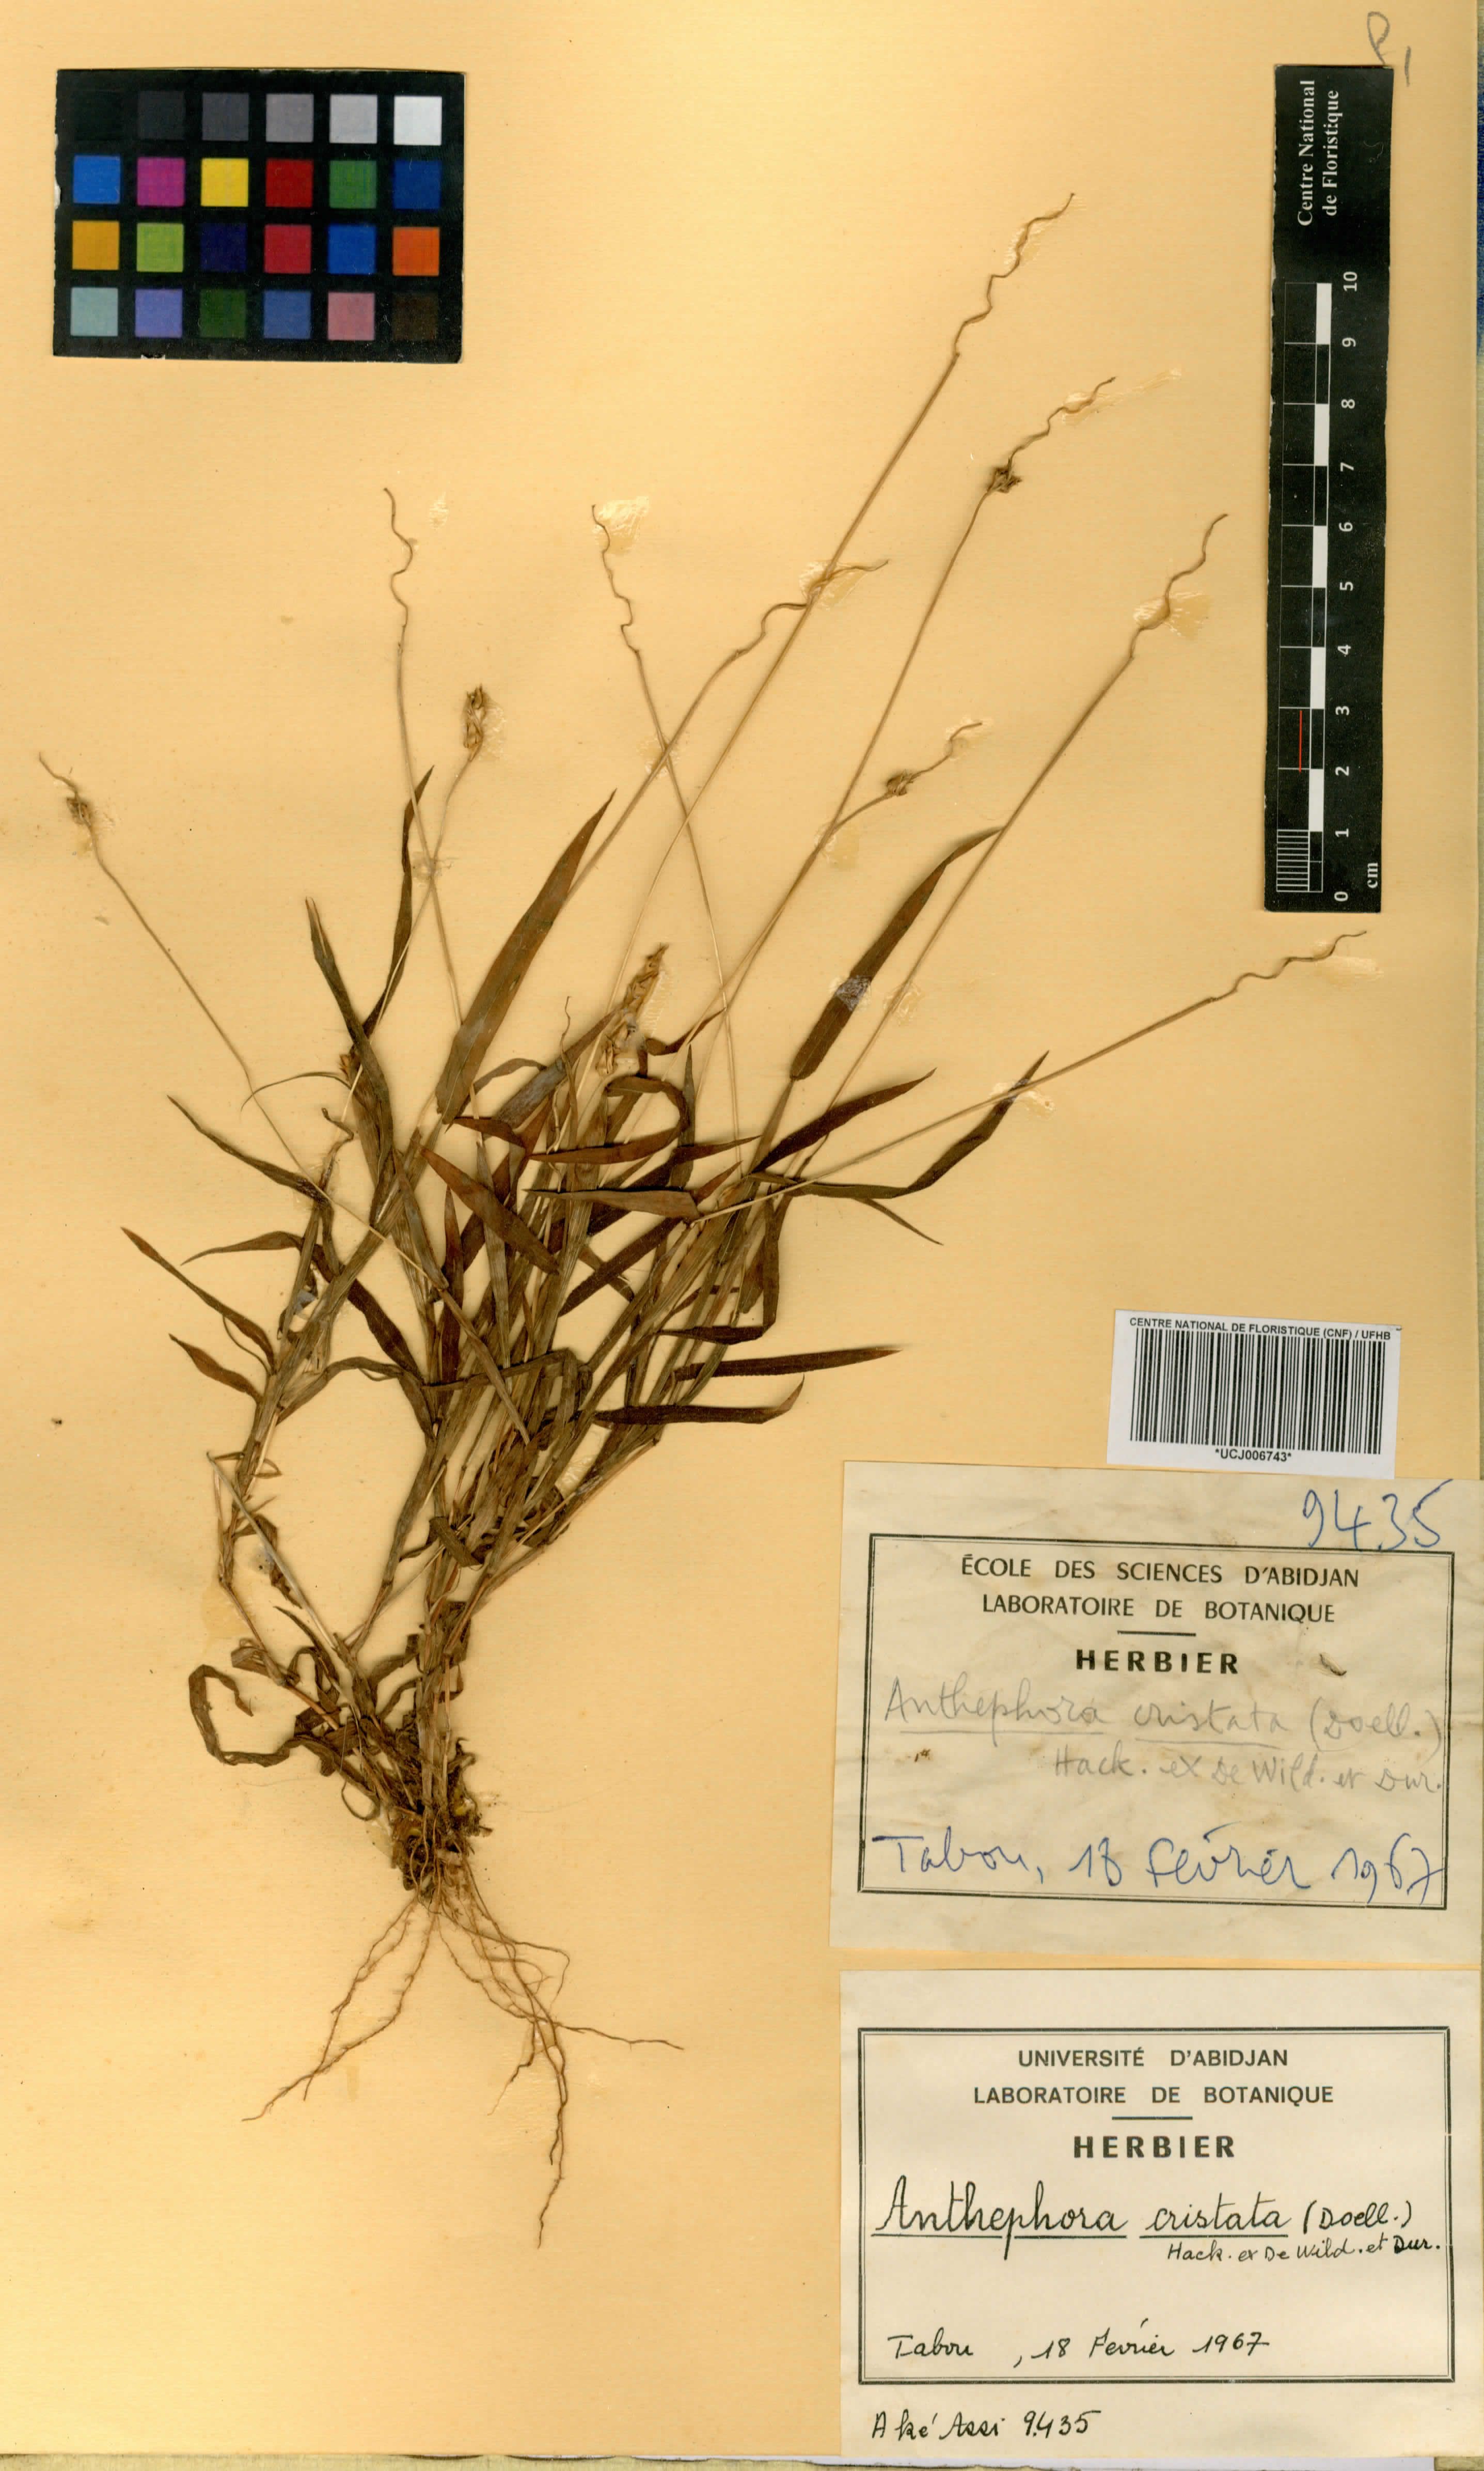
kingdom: Plantae
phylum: Tracheophyta
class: Liliopsida
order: Poales
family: Poaceae
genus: Anthephora
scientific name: Anthephora cristata
